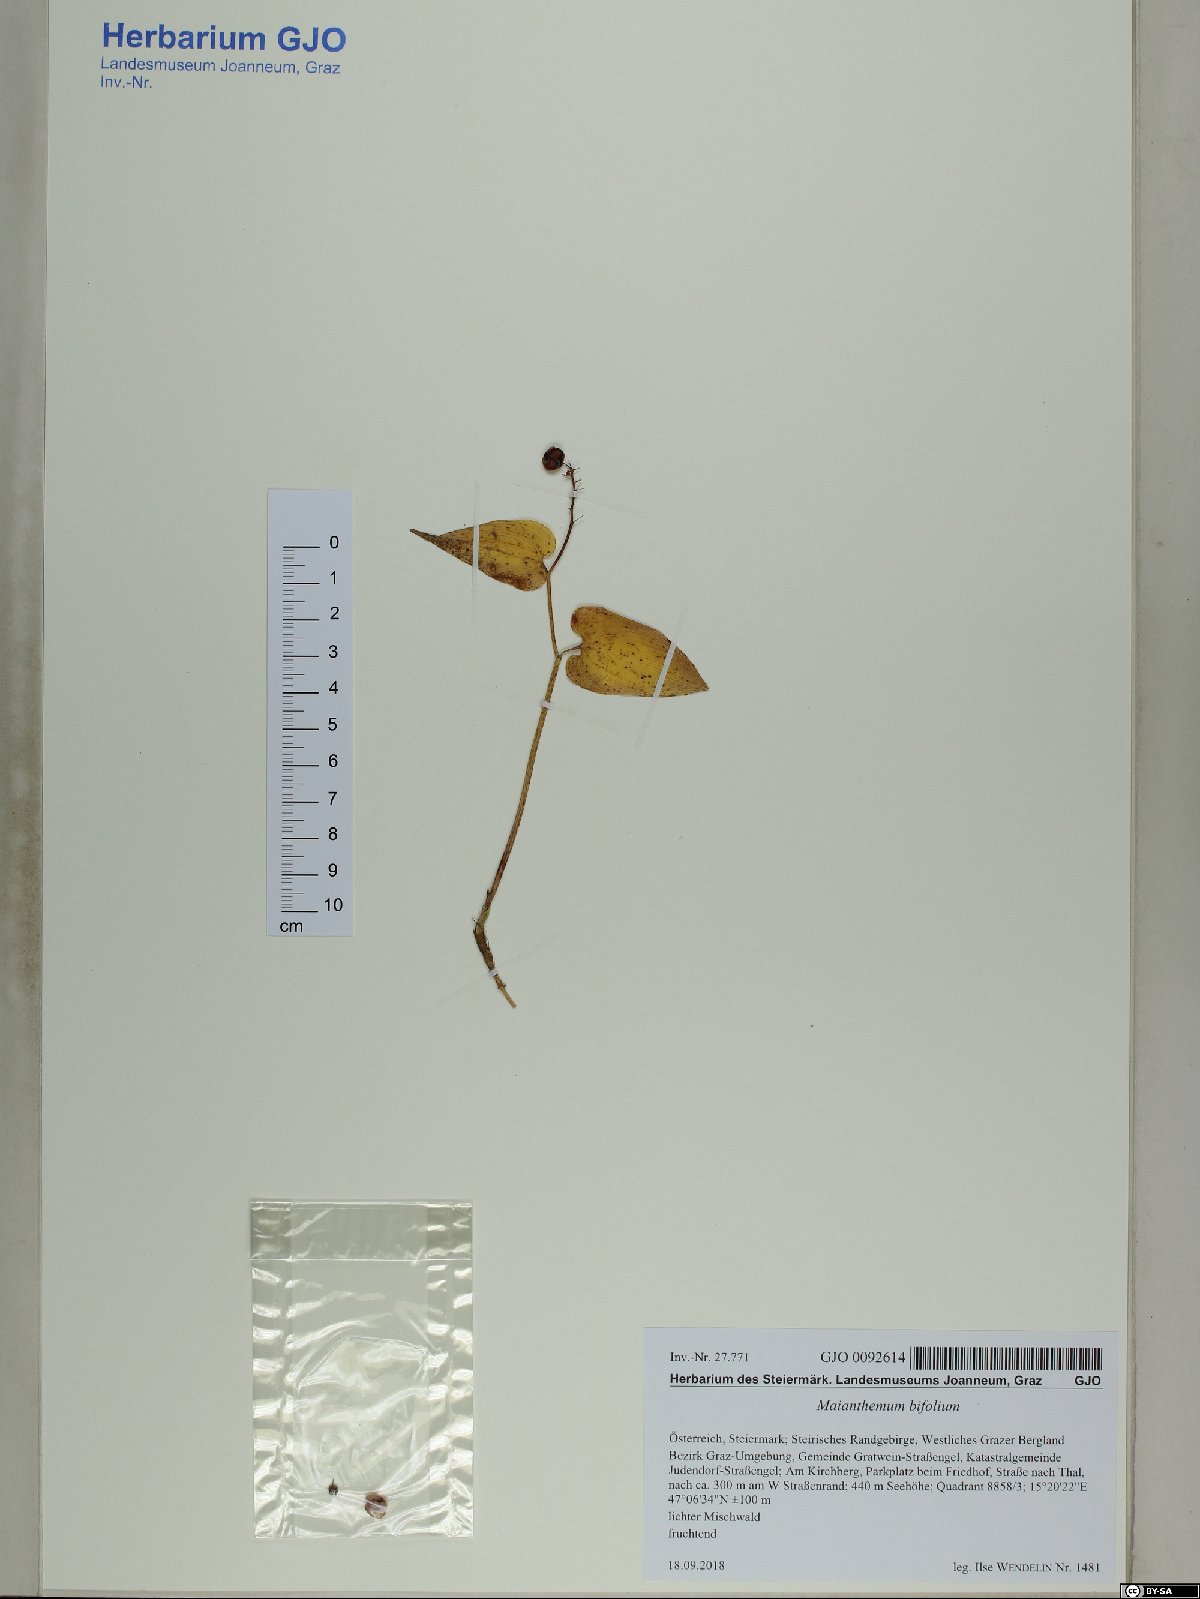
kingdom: Plantae
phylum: Tracheophyta
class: Liliopsida
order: Asparagales
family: Asparagaceae
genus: Maianthemum
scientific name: Maianthemum bifolium
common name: May lily
